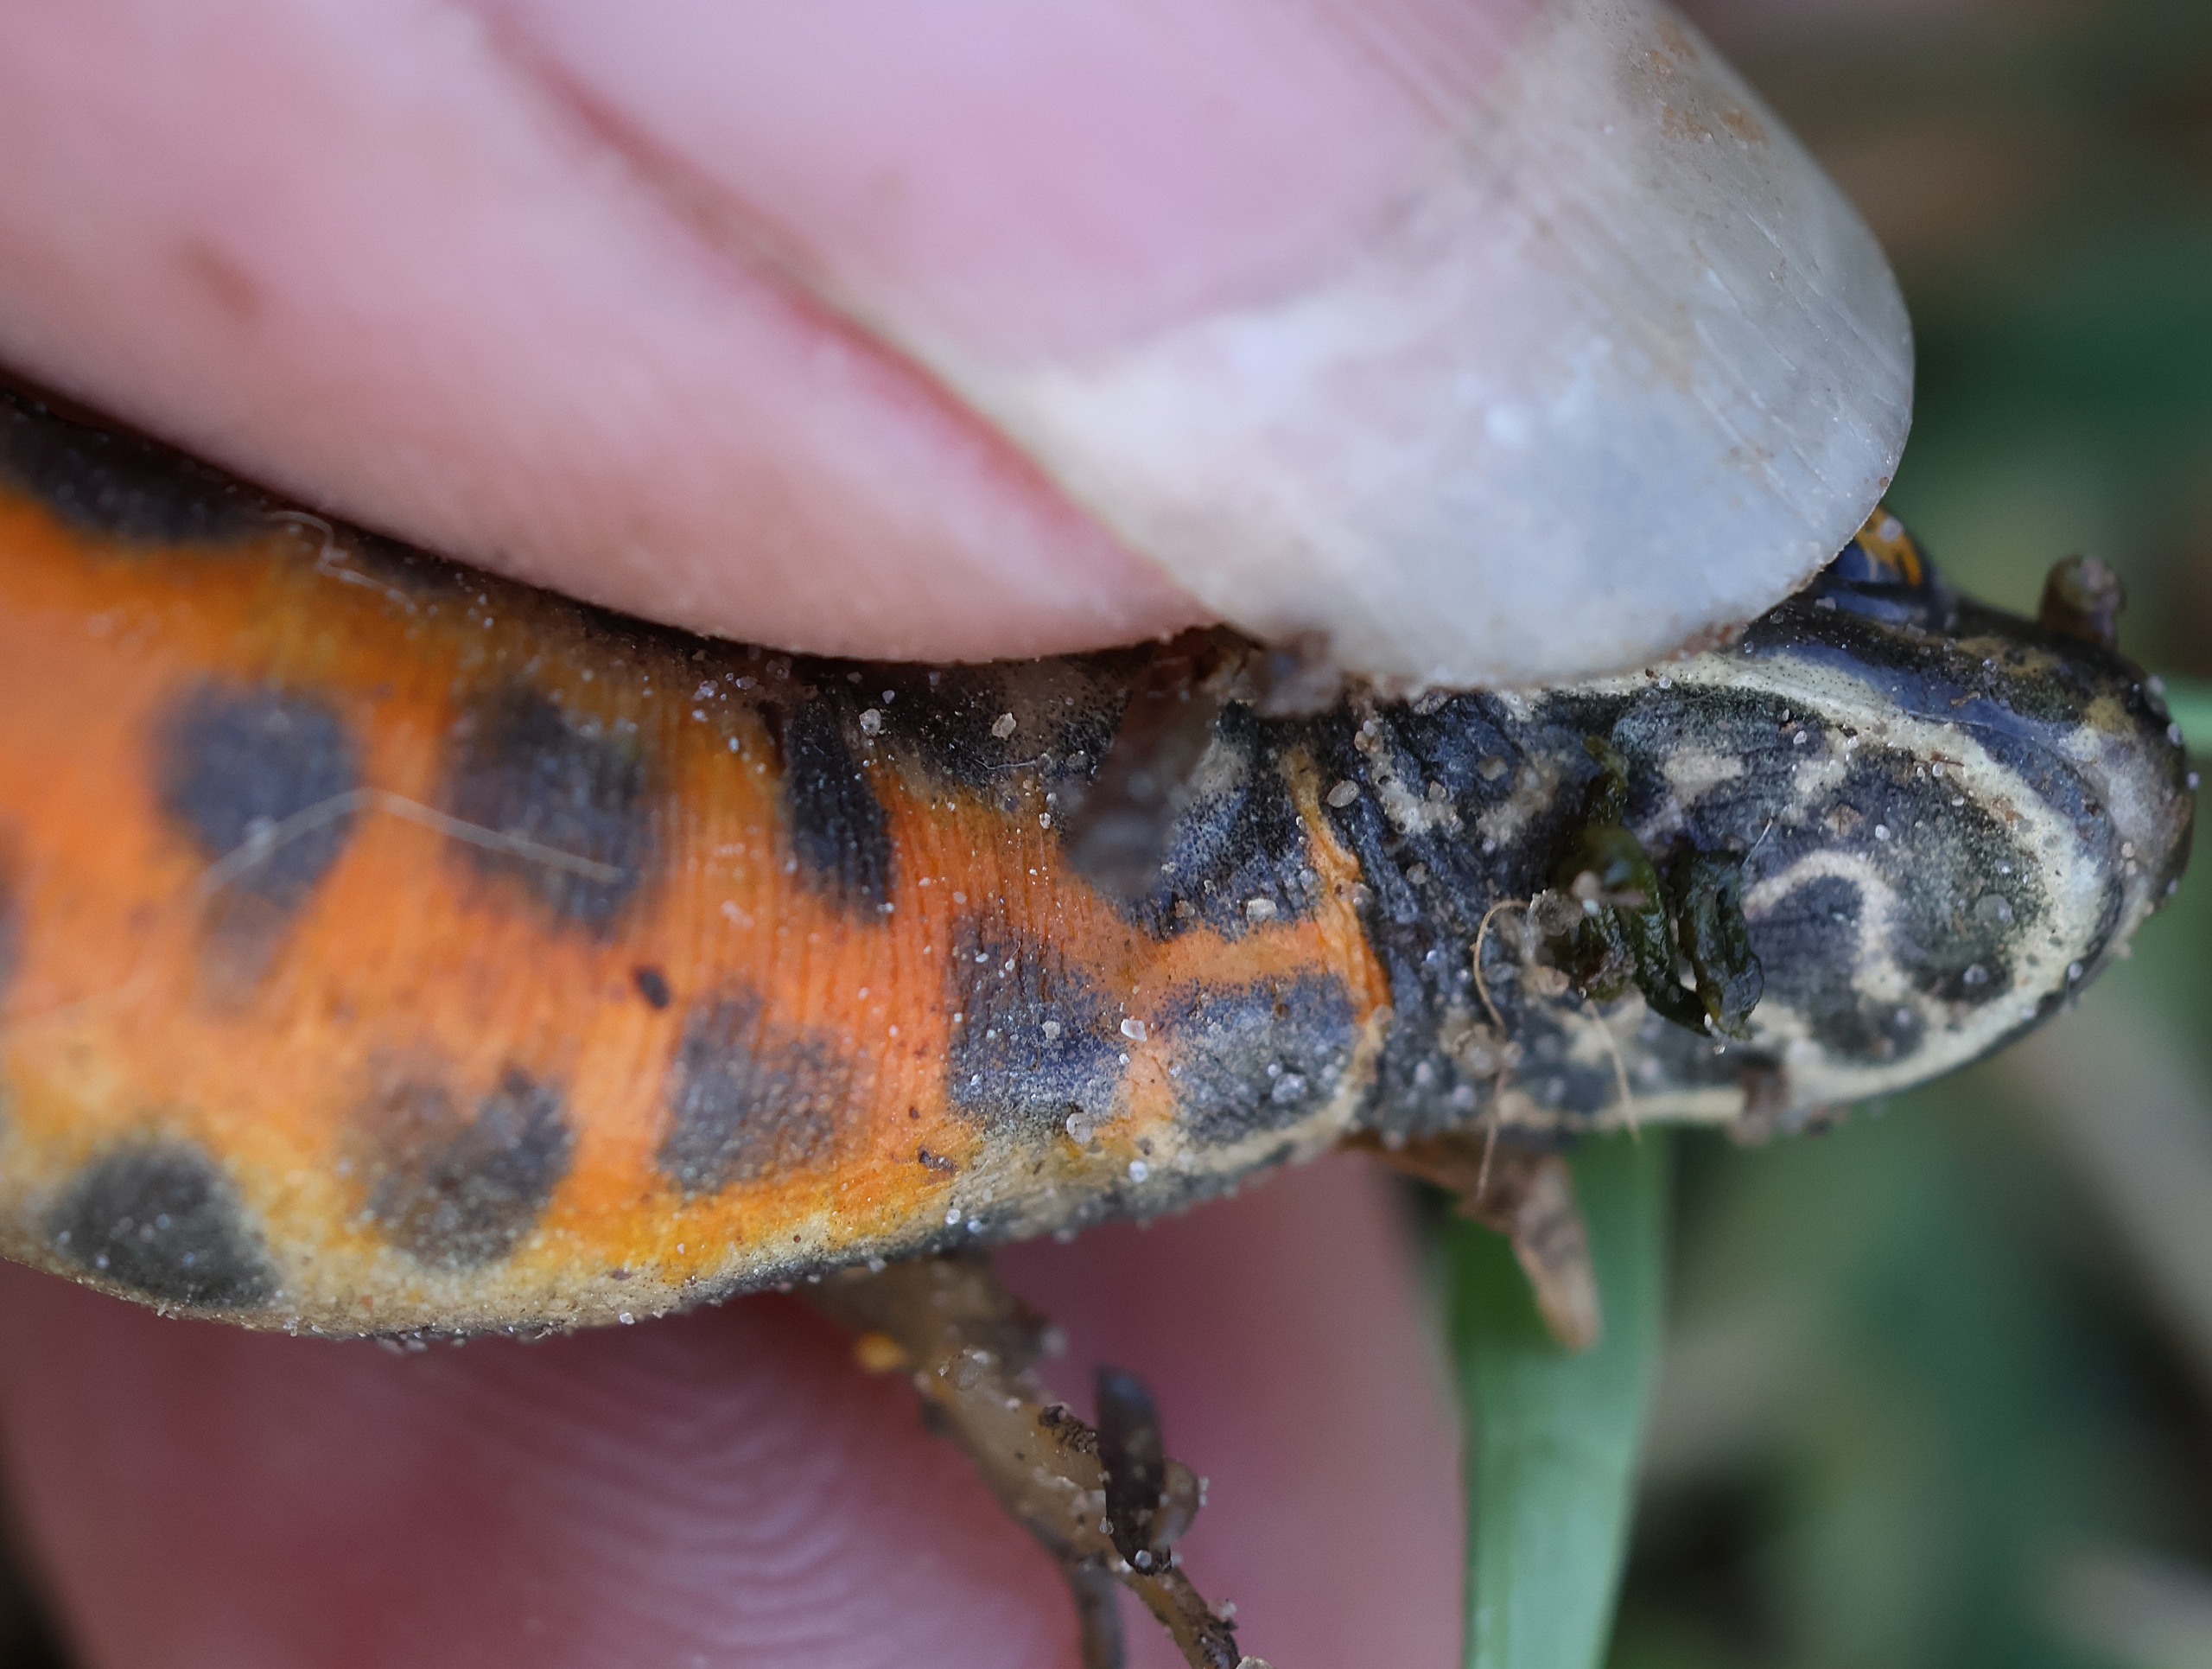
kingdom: Animalia
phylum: Chordata
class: Amphibia
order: Caudata
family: Salamandridae
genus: Lissotriton
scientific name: Lissotriton vulgaris
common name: Lille vandsalamander
